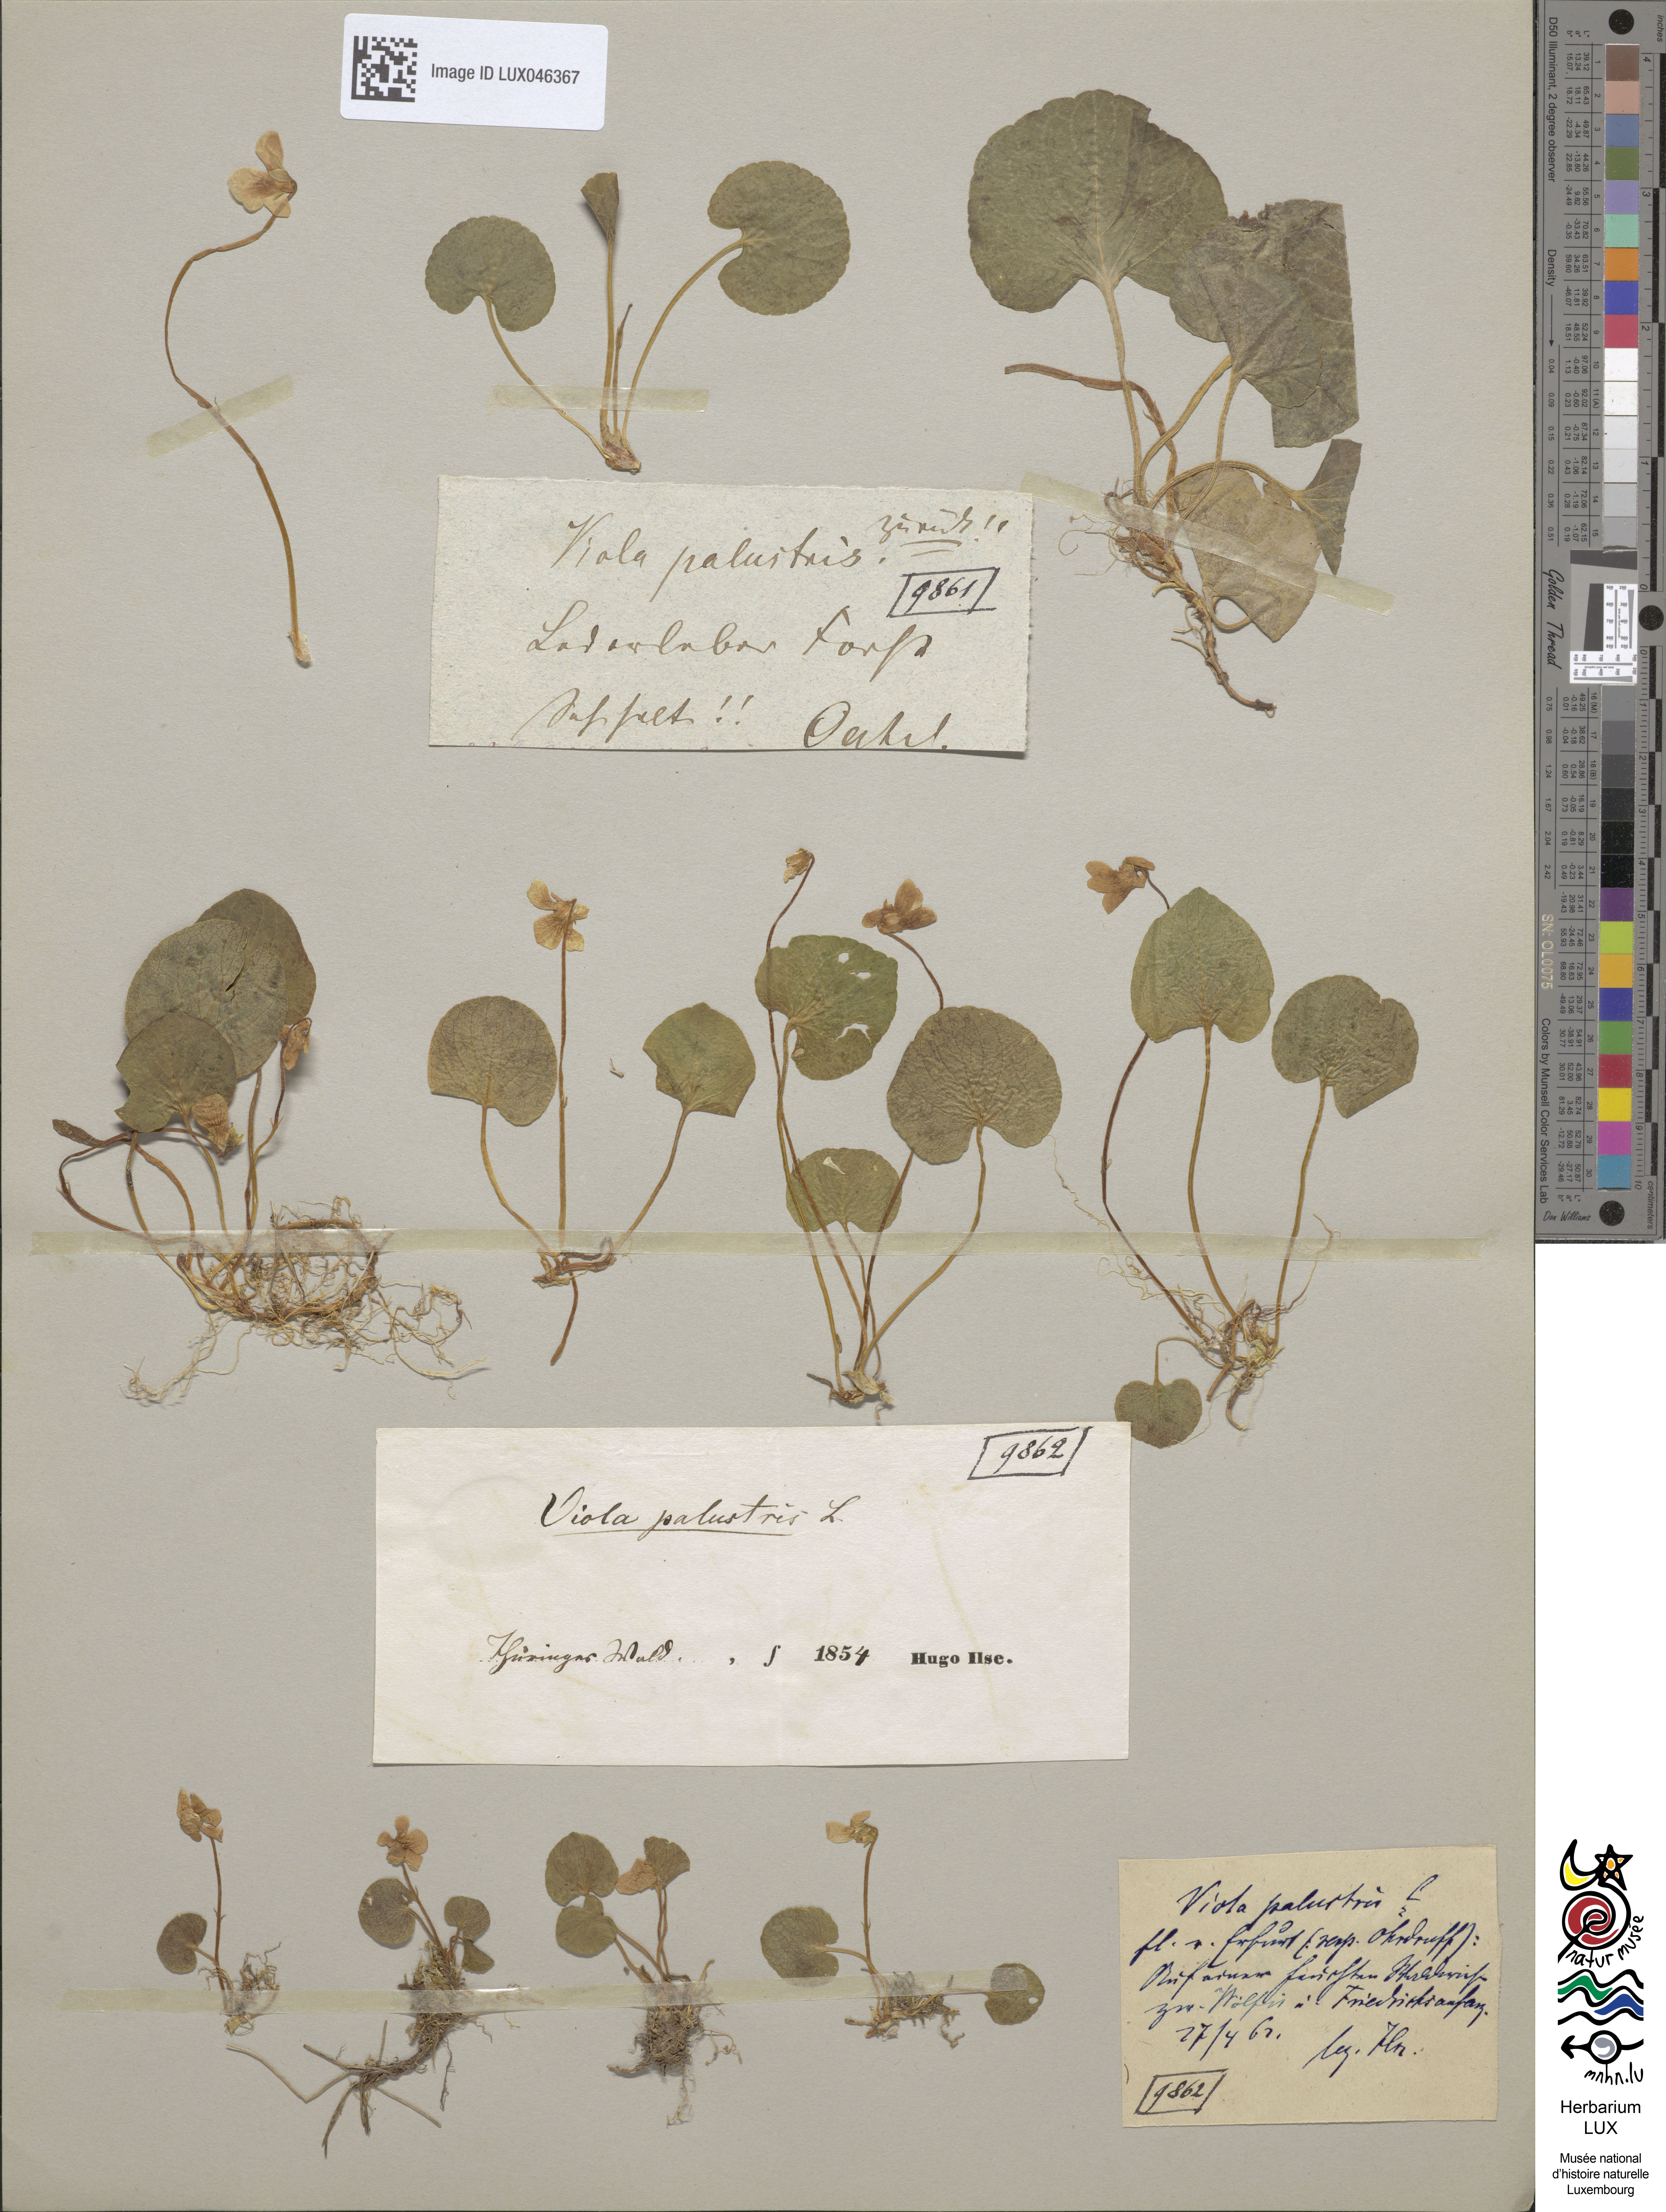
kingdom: Plantae
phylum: Tracheophyta
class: Magnoliopsida
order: Malpighiales
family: Violaceae
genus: Viola
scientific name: Viola palustris
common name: Marsh violet
